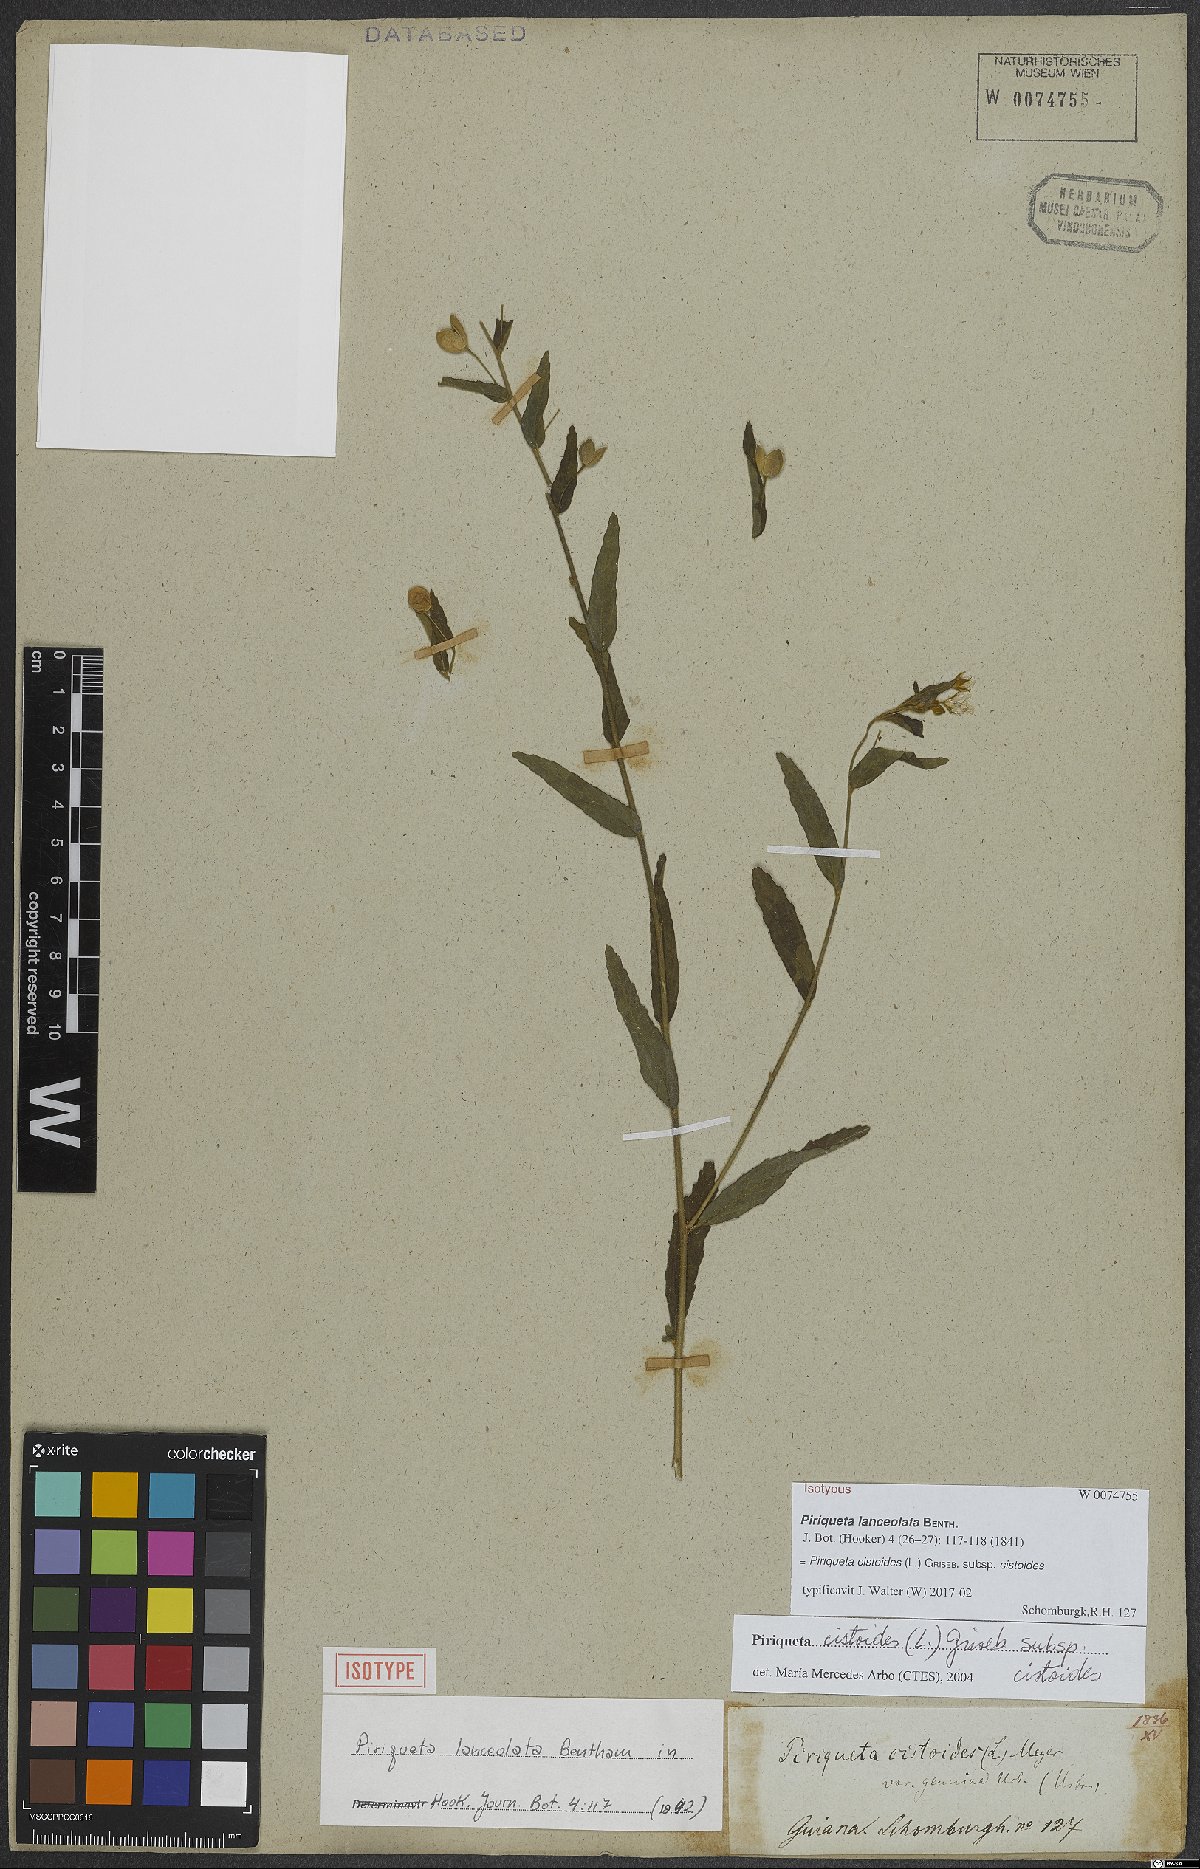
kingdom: Plantae
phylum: Tracheophyta
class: Magnoliopsida
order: Malpighiales
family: Turneraceae
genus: Piriqueta
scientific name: Piriqueta cistoides
